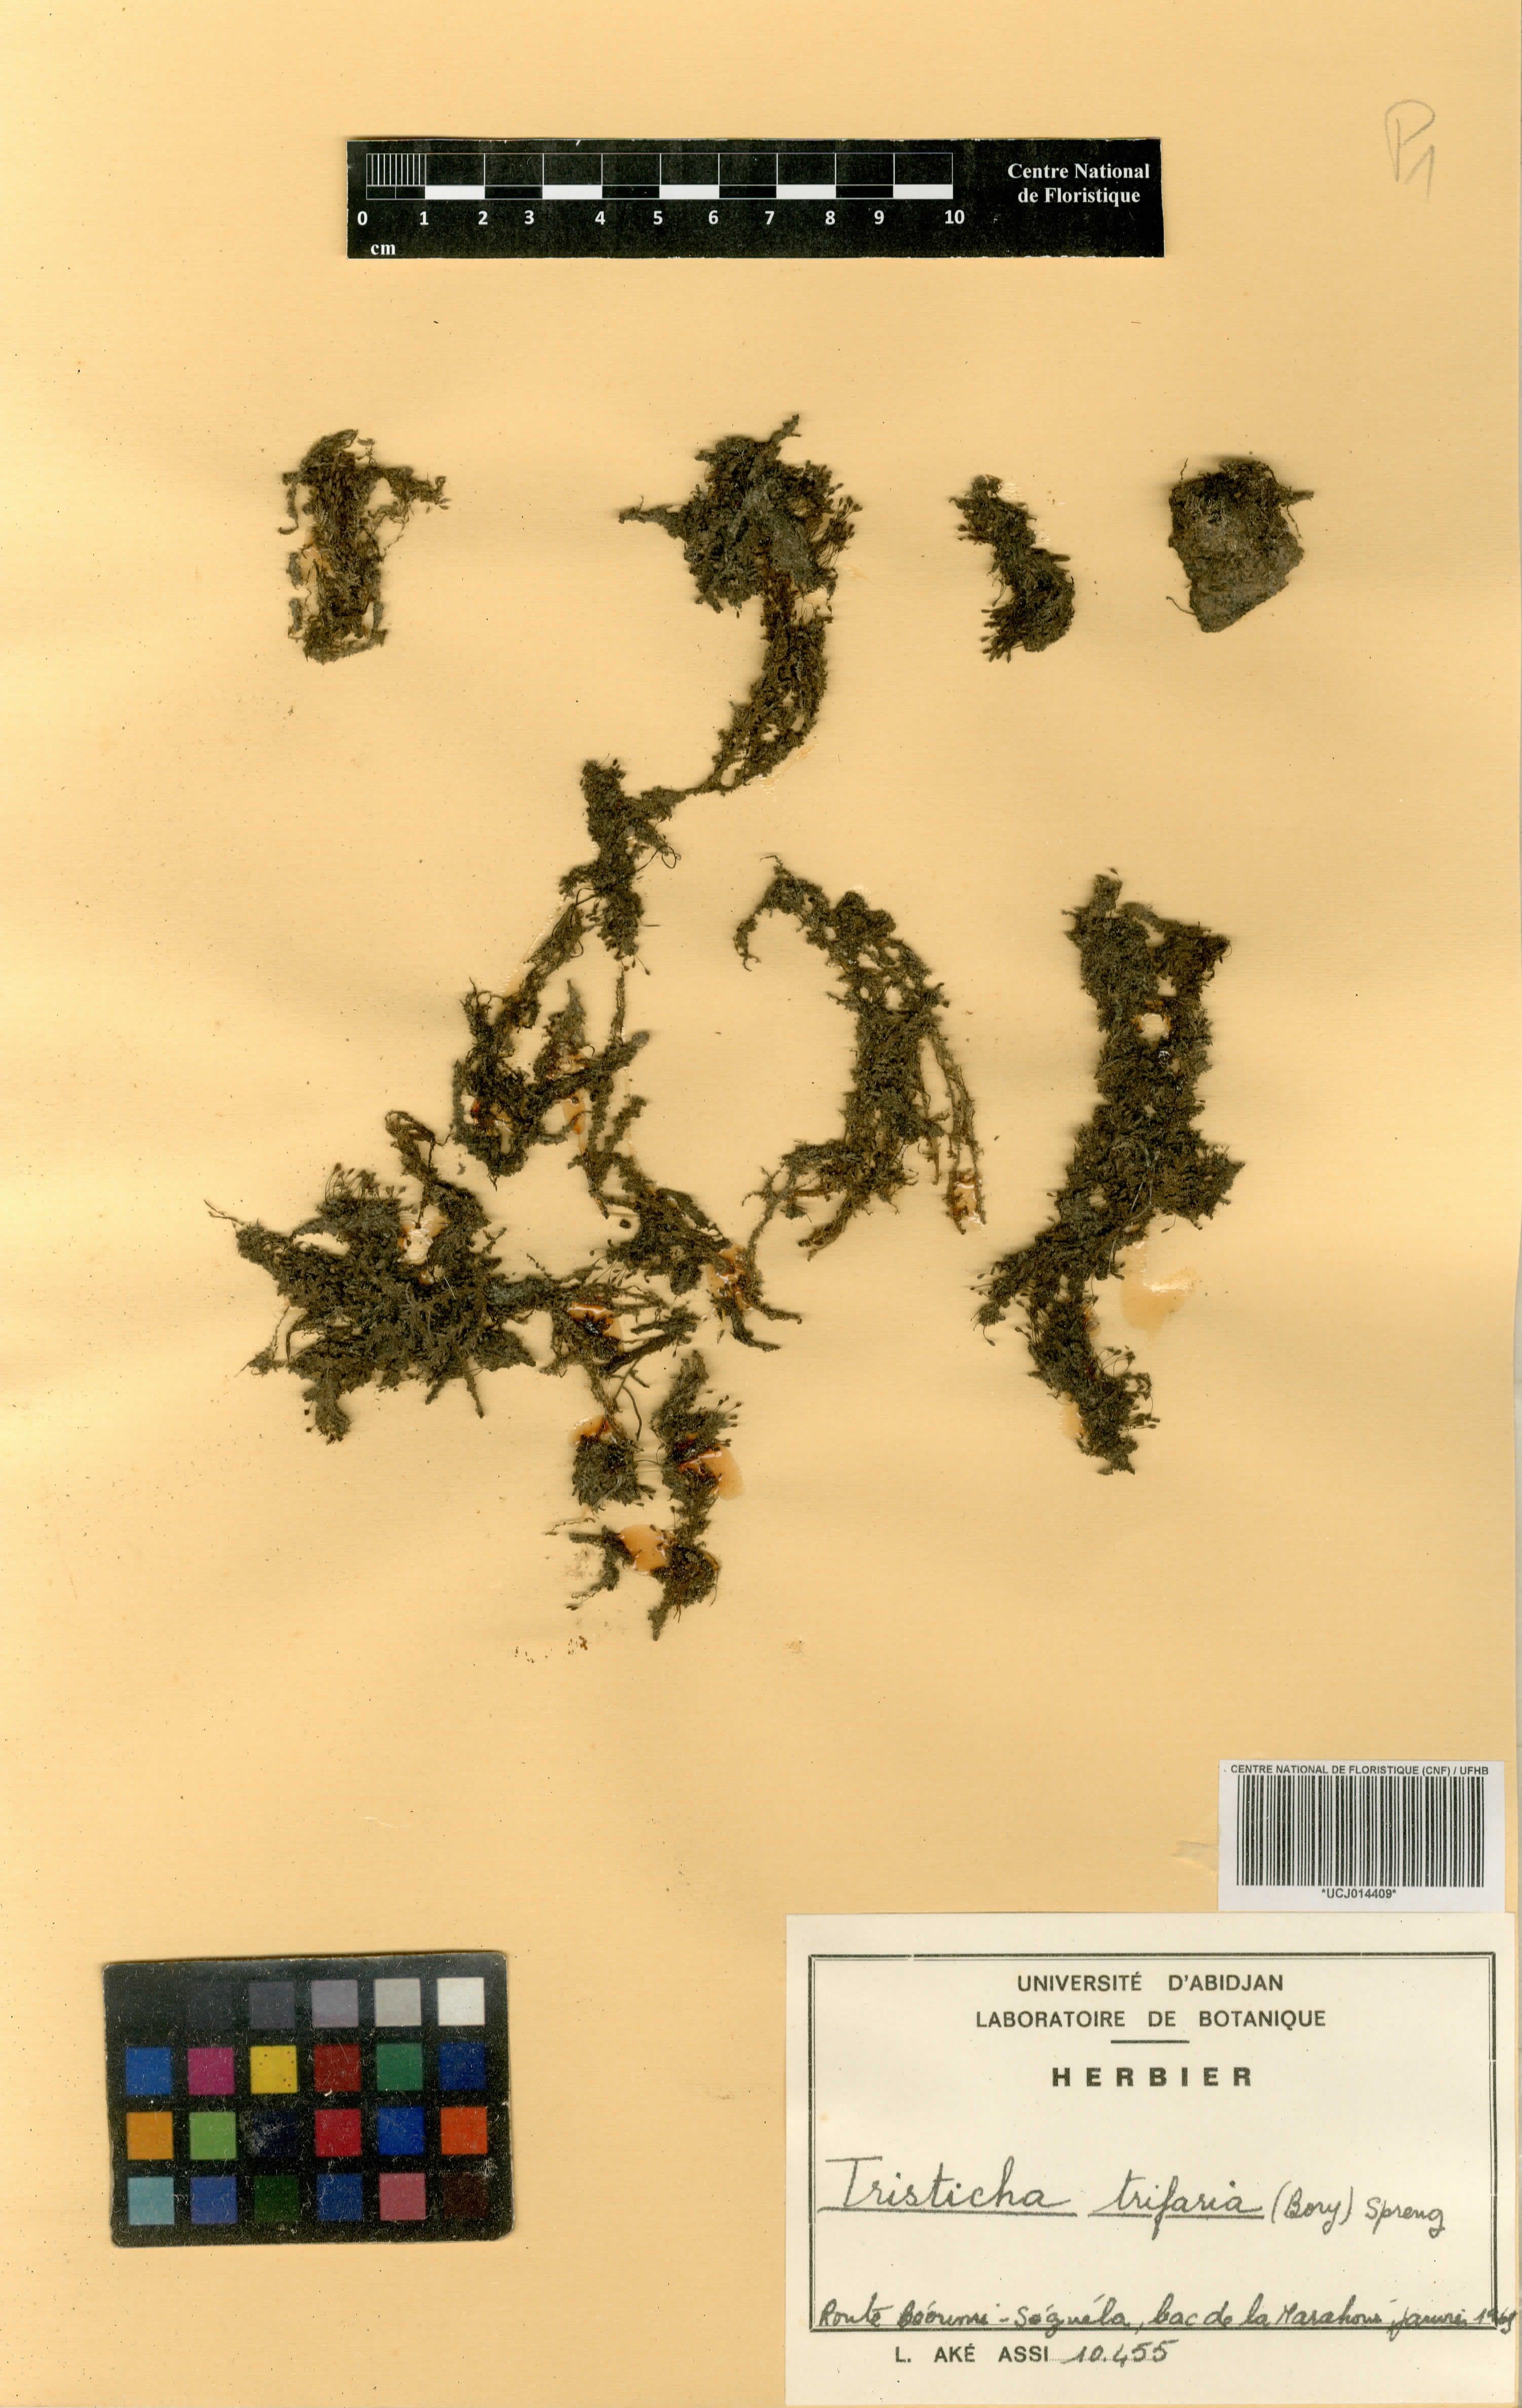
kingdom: Plantae
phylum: Tracheophyta
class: Magnoliopsida
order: Malpighiales
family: Podostemaceae
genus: Tristicha
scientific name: Tristicha trifaria
